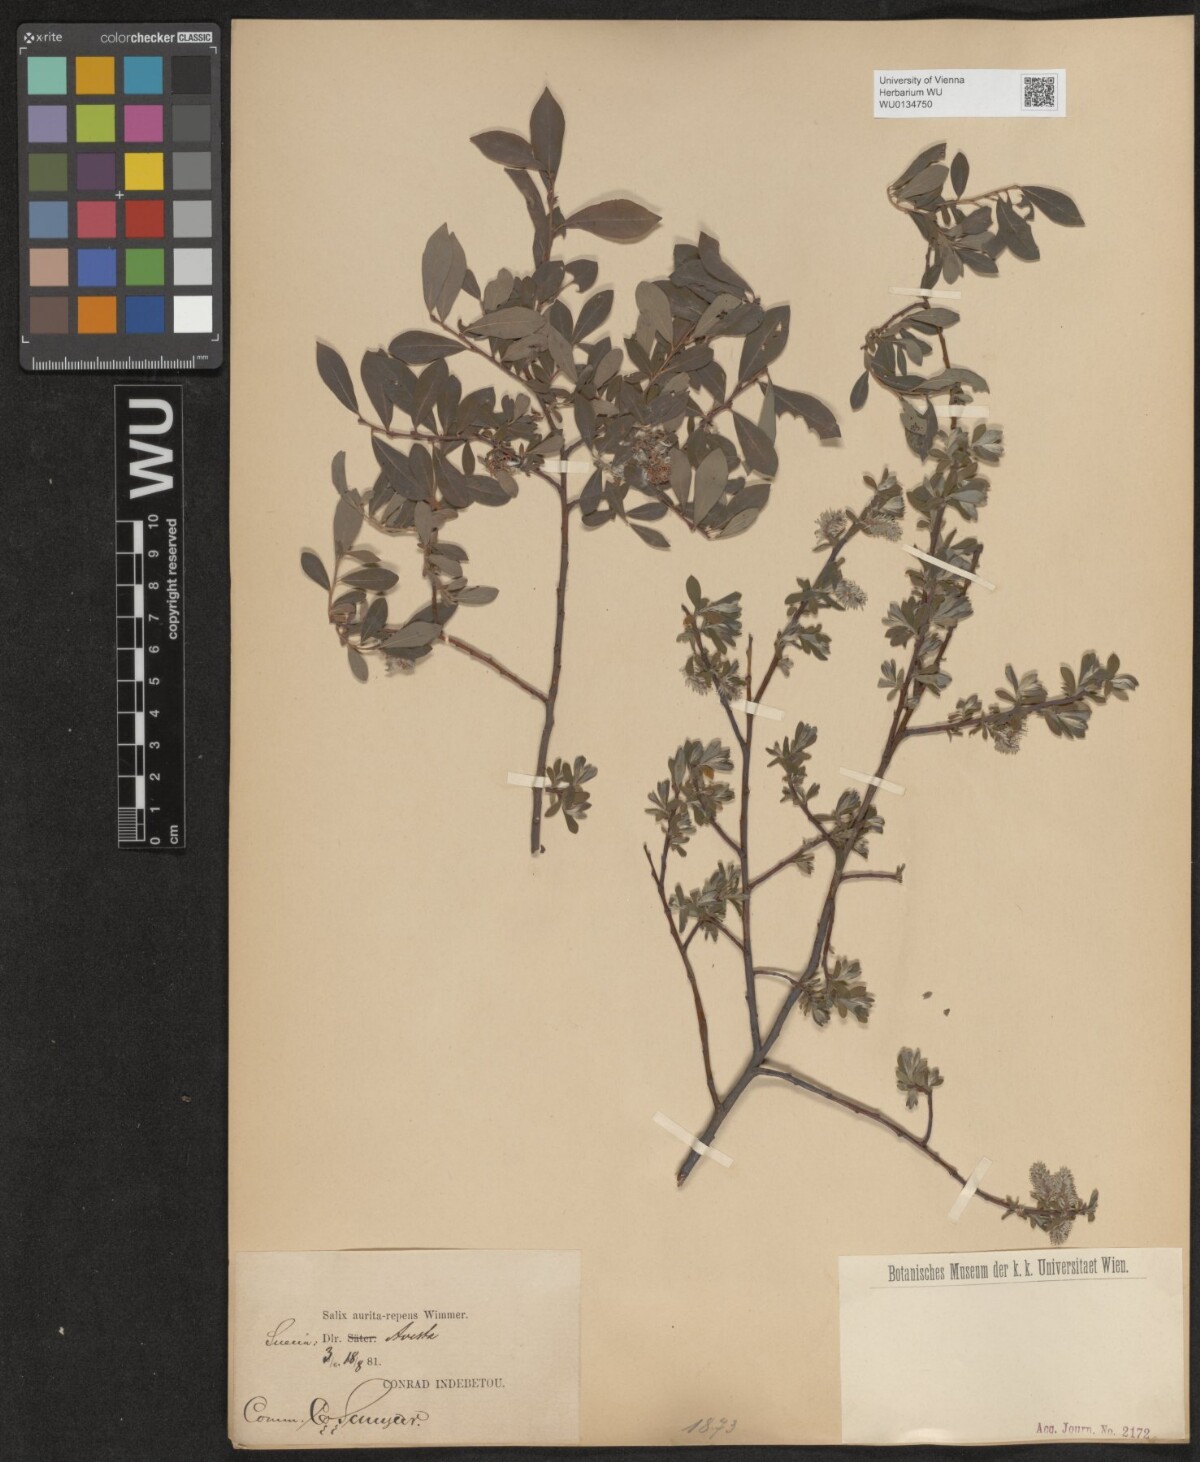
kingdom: Plantae
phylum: Tracheophyta
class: Magnoliopsida
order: Malpighiales
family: Salicaceae
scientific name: Salicaceae
